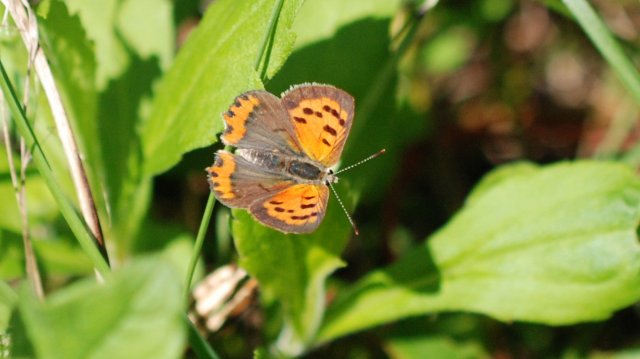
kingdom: Animalia
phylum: Arthropoda
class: Insecta
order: Lepidoptera
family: Lycaenidae
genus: Lycaena
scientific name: Lycaena phlaeas
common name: American Copper
